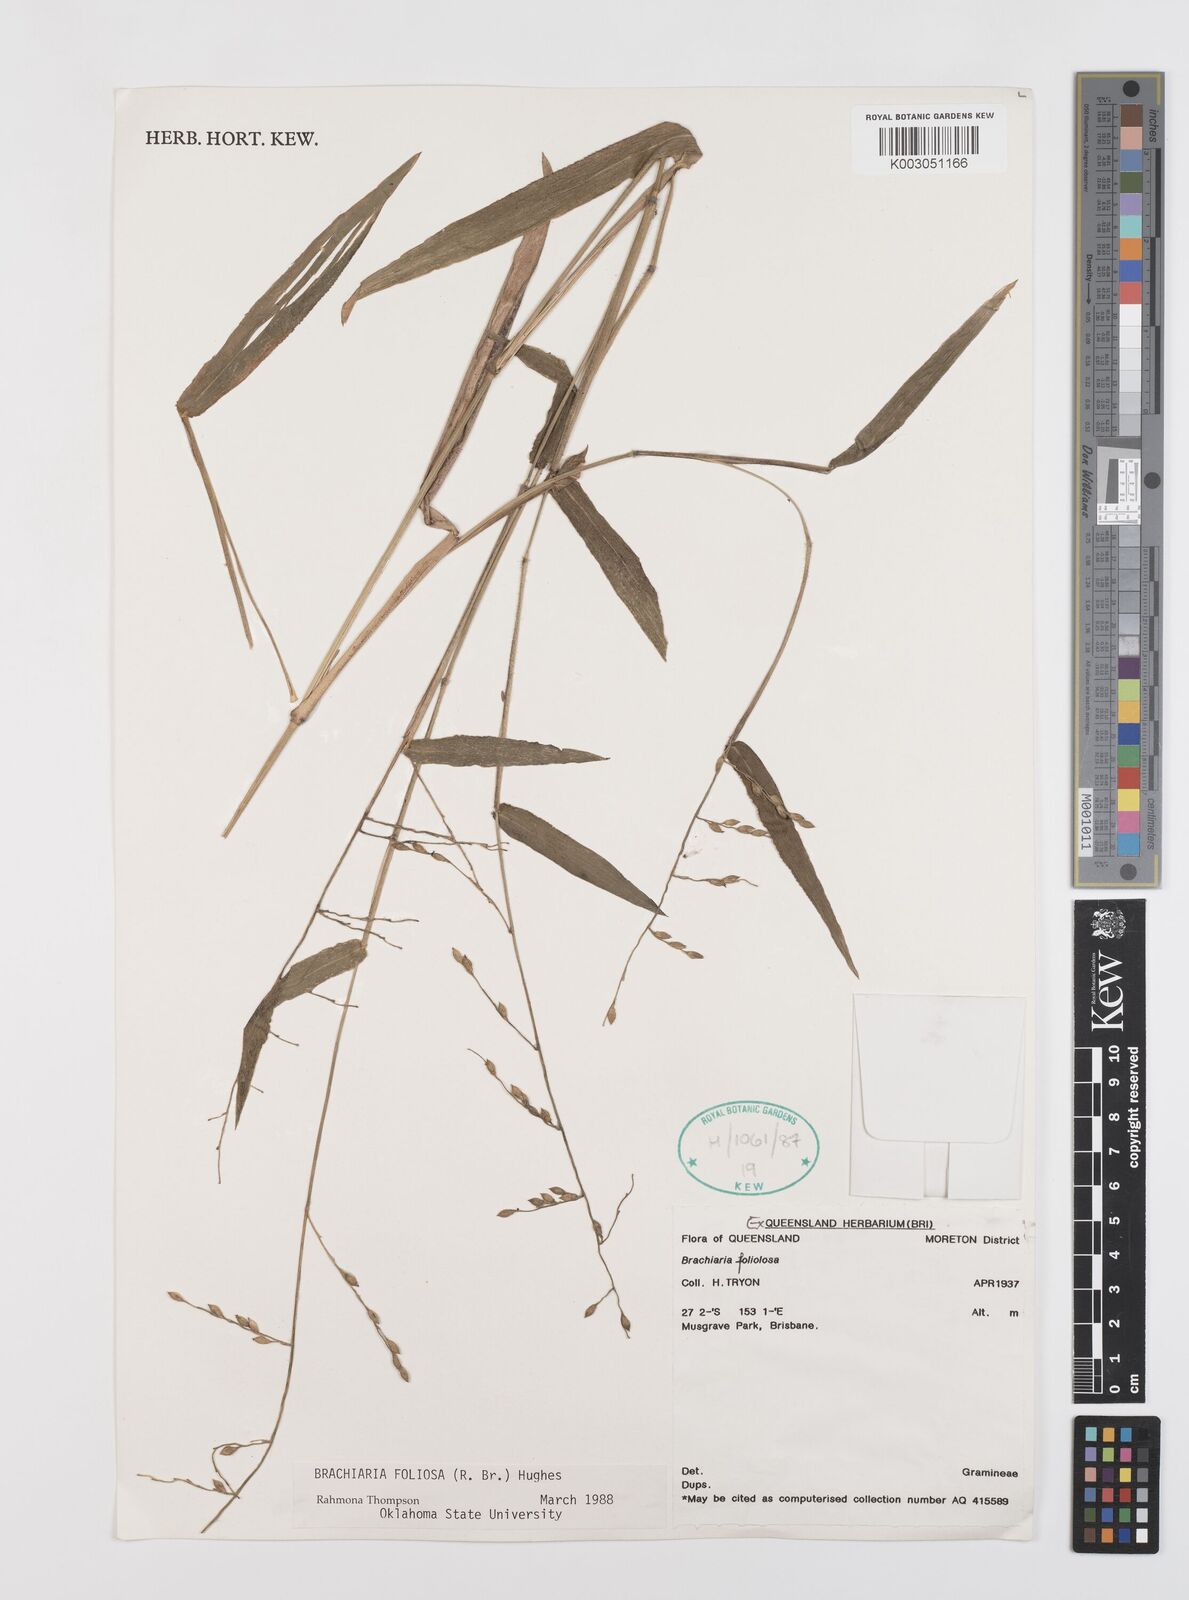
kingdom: Plantae
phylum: Tracheophyta
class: Liliopsida
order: Poales
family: Poaceae
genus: Urochloa
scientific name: Urochloa foliosa
